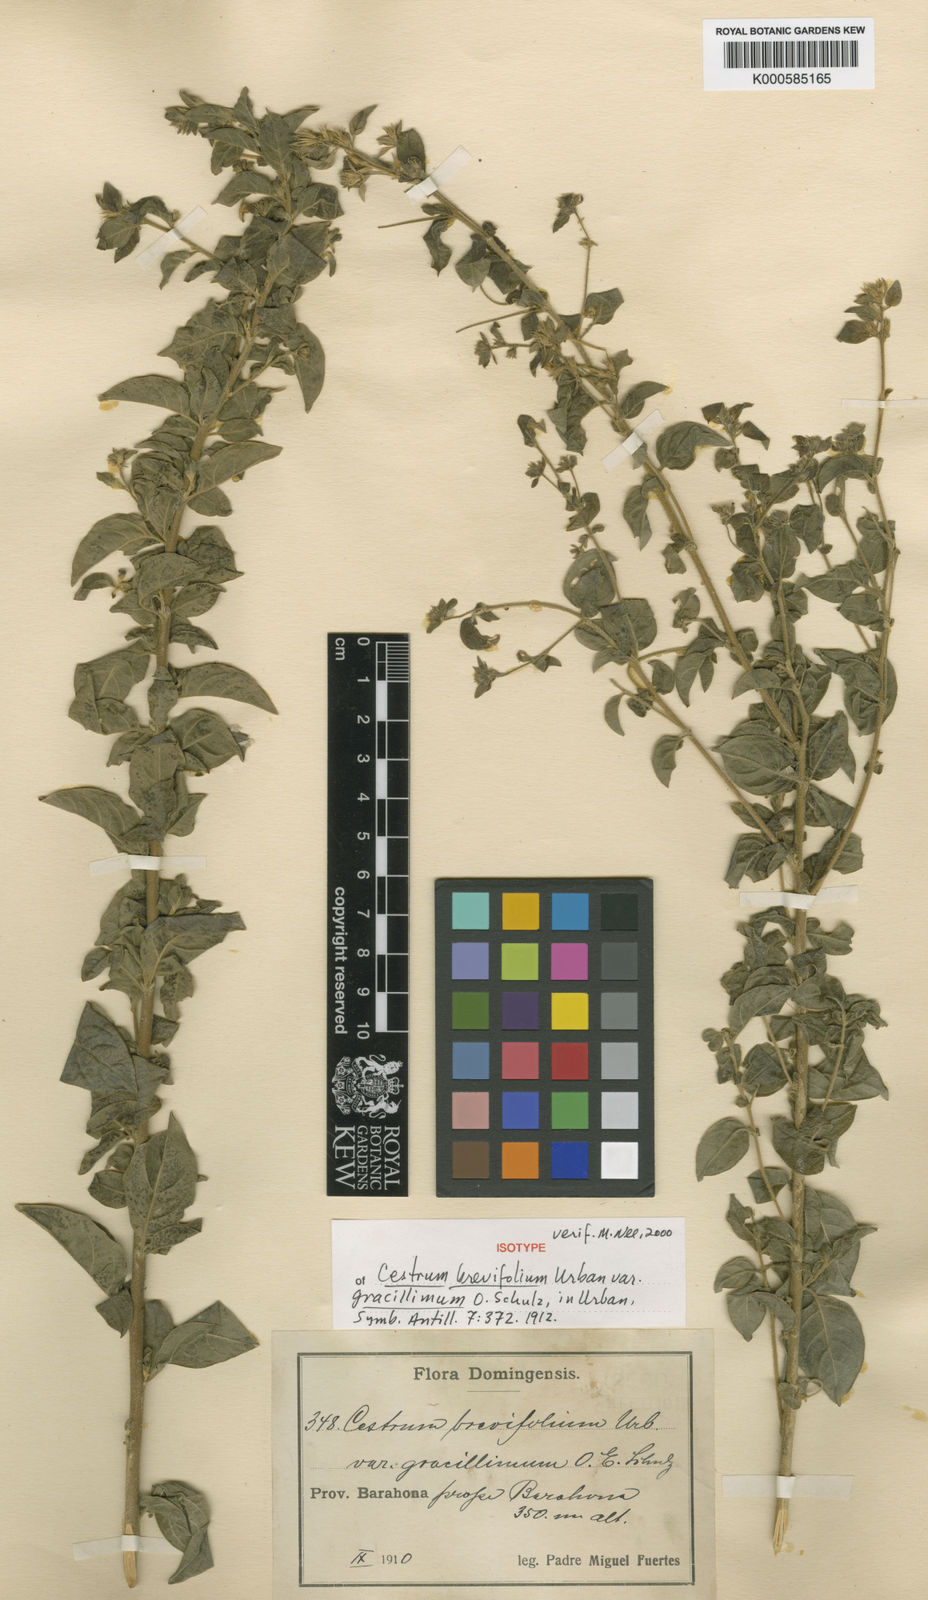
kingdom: Plantae
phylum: Tracheophyta
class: Magnoliopsida
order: Solanales
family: Solanaceae
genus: Cestrum
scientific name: Cestrum brevifolium
